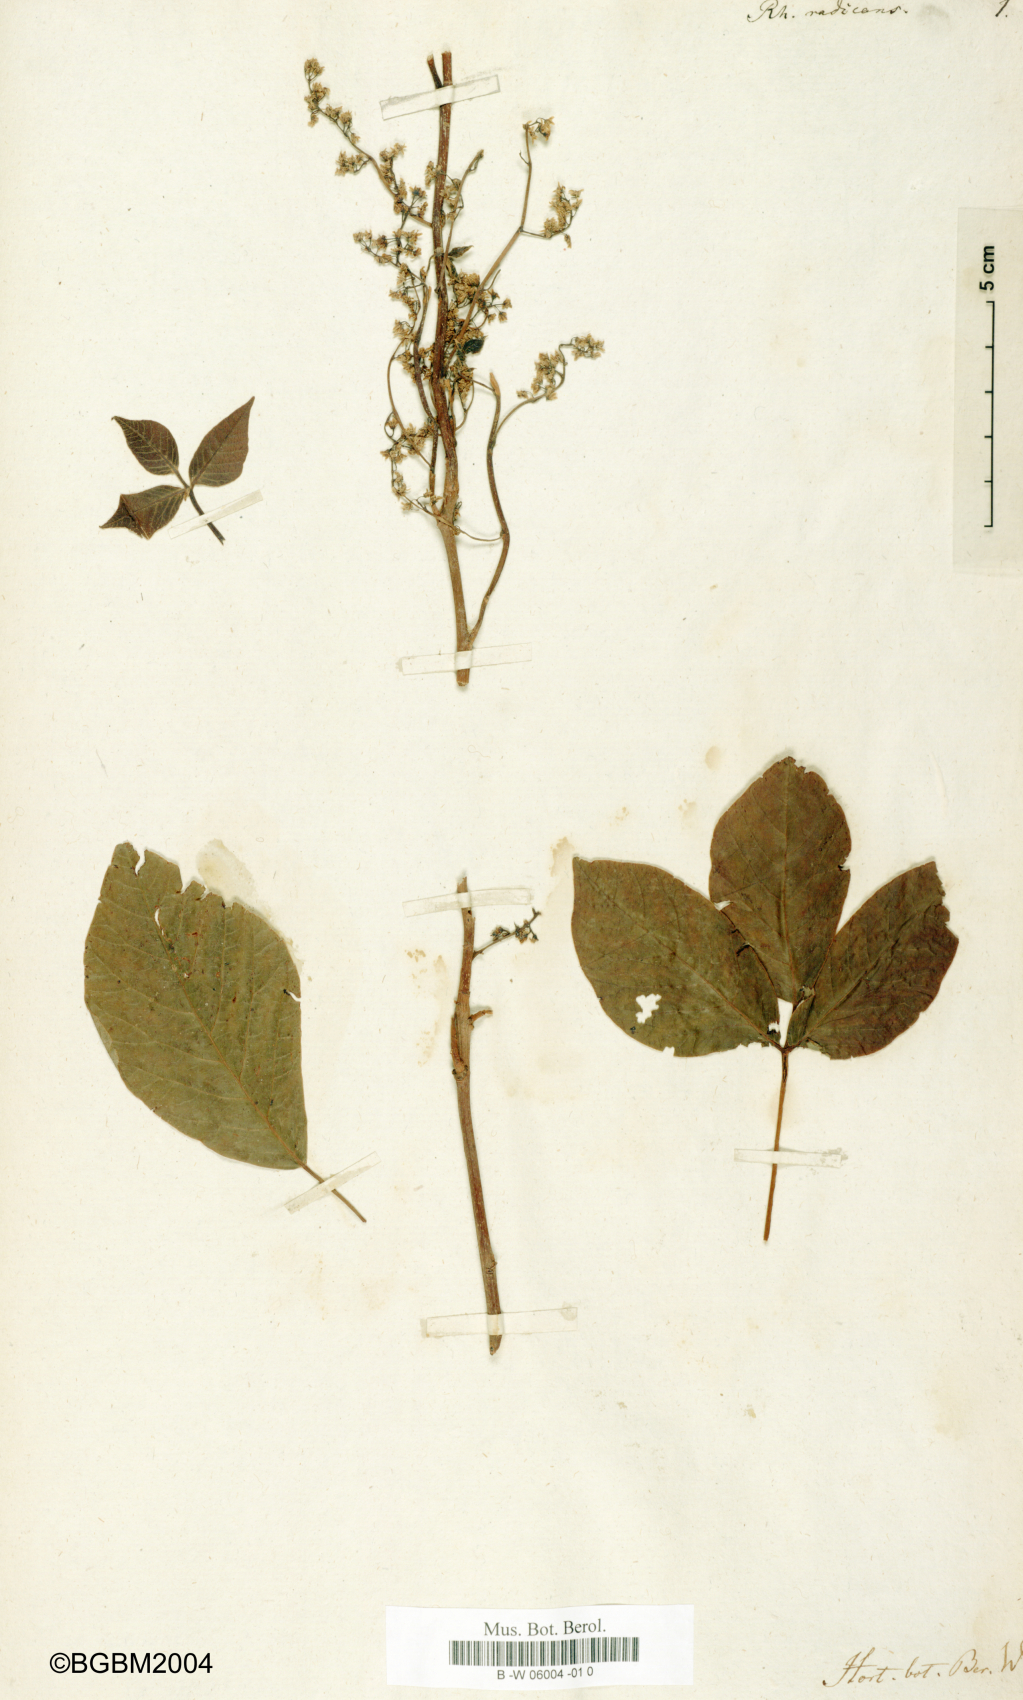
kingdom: Plantae
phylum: Tracheophyta
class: Magnoliopsida
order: Sapindales
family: Anacardiaceae
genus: Toxicodendron
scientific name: Toxicodendron radicans
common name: Poison ivy
